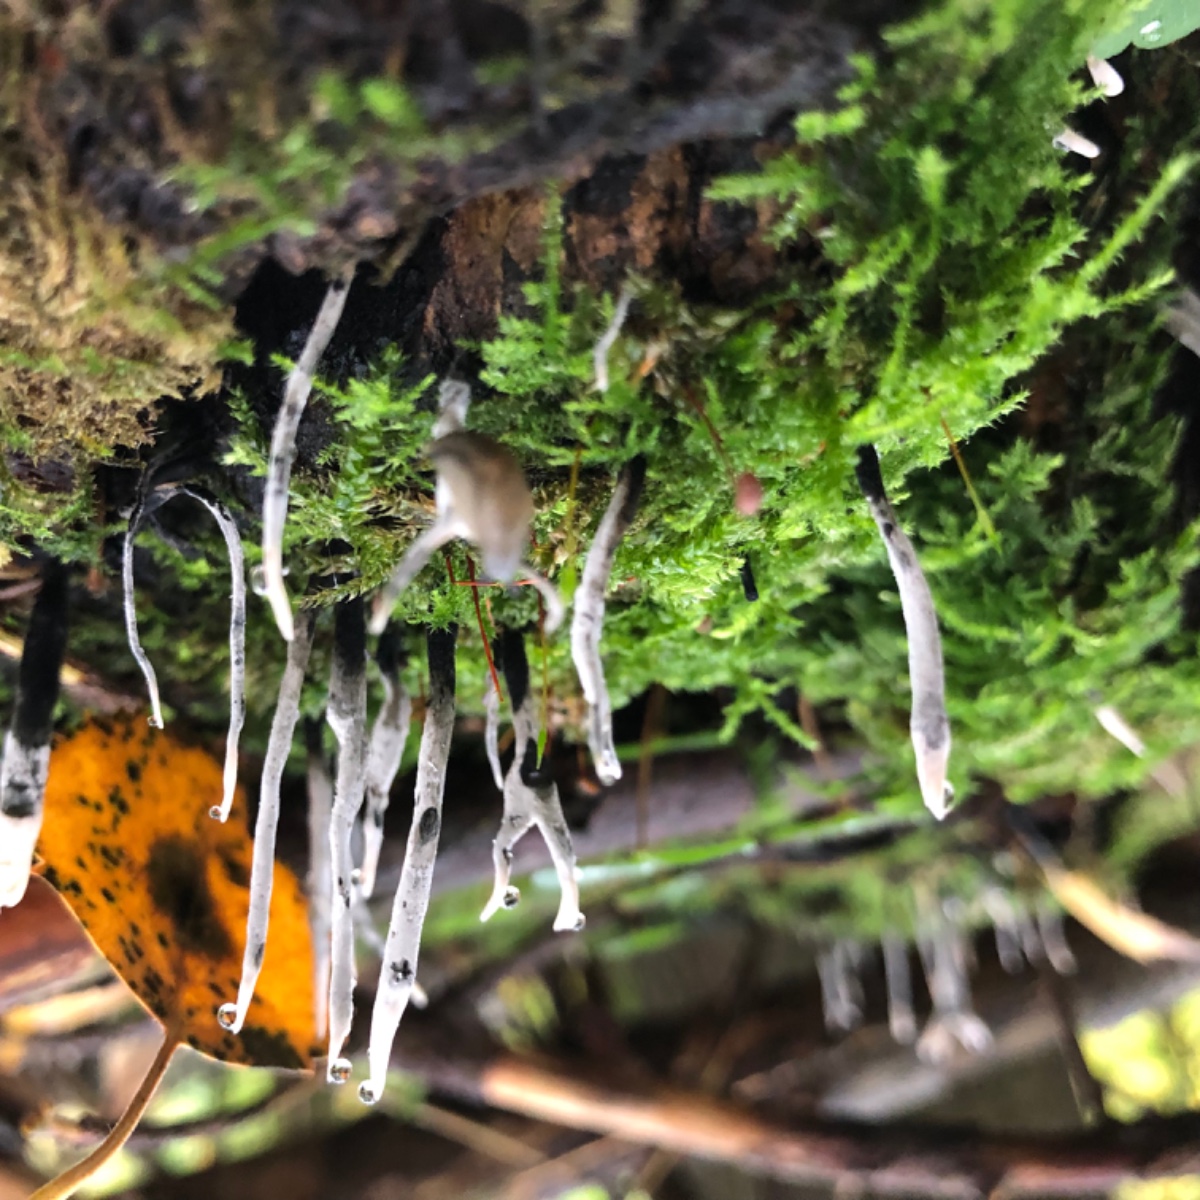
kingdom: Fungi
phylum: Ascomycota
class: Sordariomycetes
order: Xylariales
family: Xylariaceae
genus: Xylaria
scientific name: Xylaria hypoxylon
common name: grenet stødsvamp
